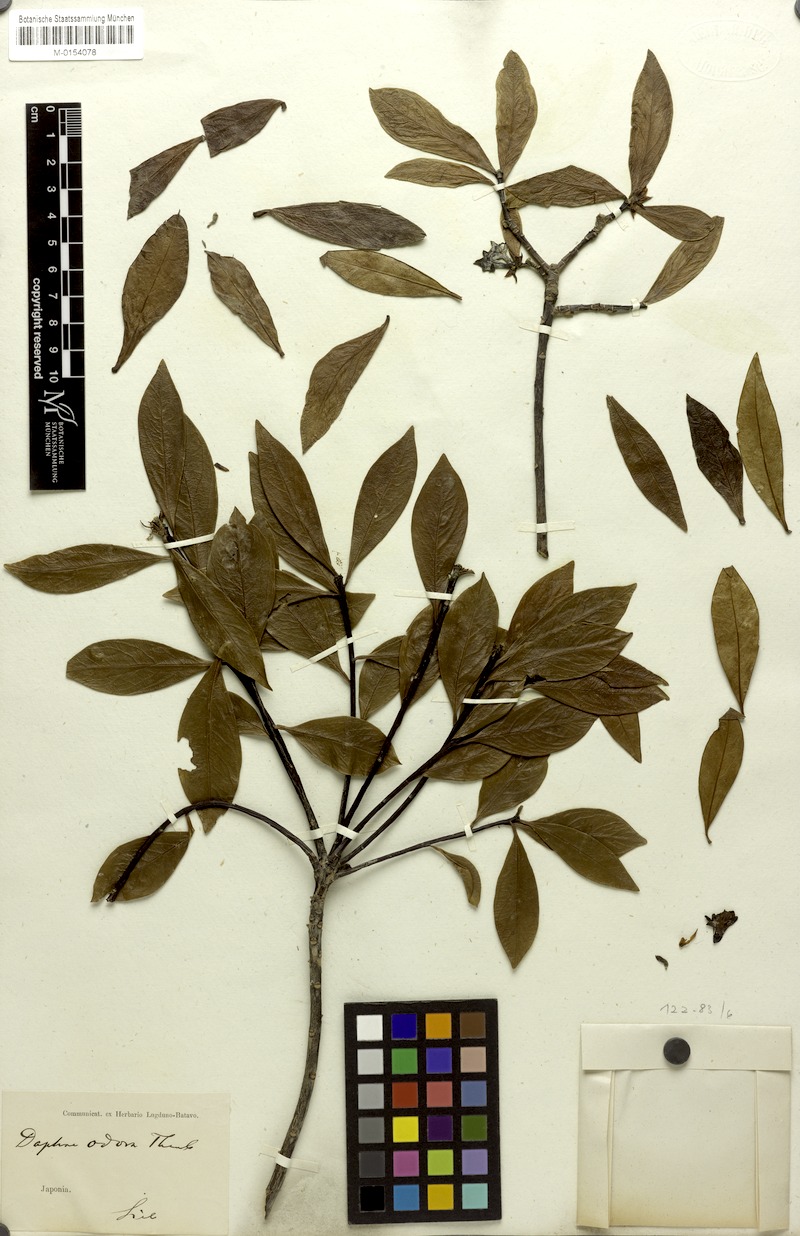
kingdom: Plantae
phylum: Tracheophyta
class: Magnoliopsida
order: Malvales
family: Thymelaeaceae
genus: Daphne
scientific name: Daphne odora
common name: Winter daphne
